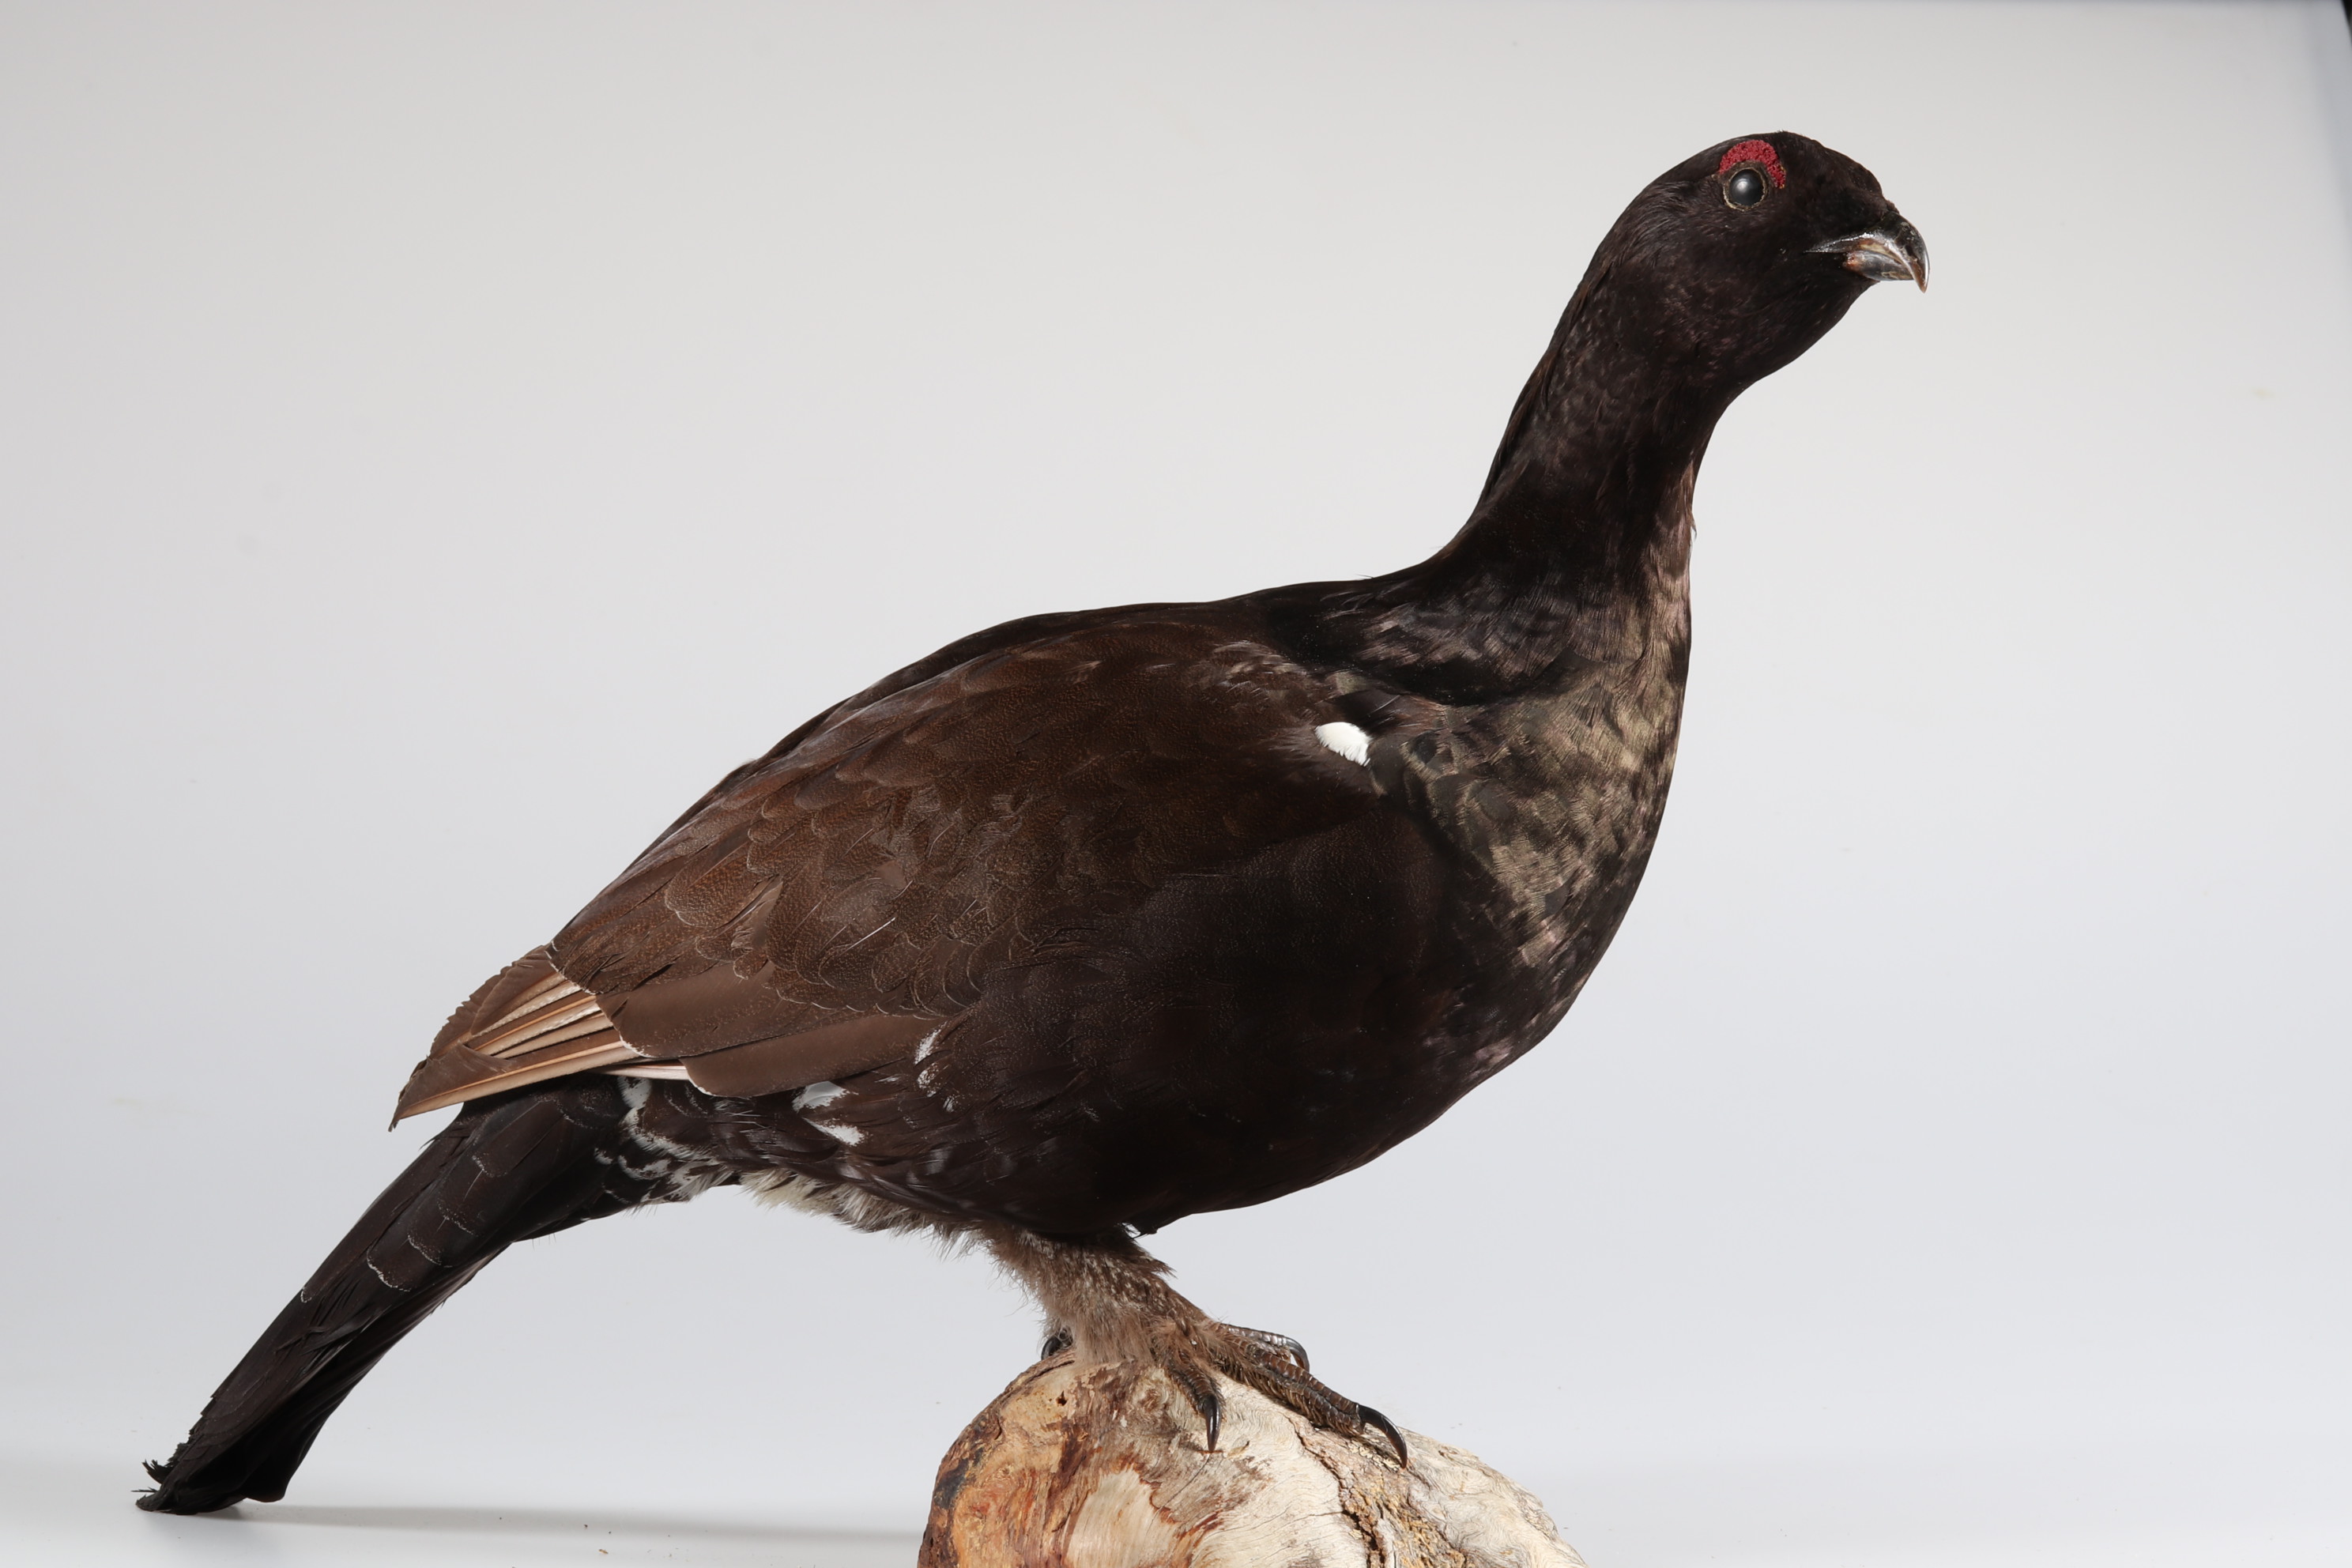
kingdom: Animalia
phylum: Chordata
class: Aves
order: Galliformes
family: Phasianidae
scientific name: Phasianidae
